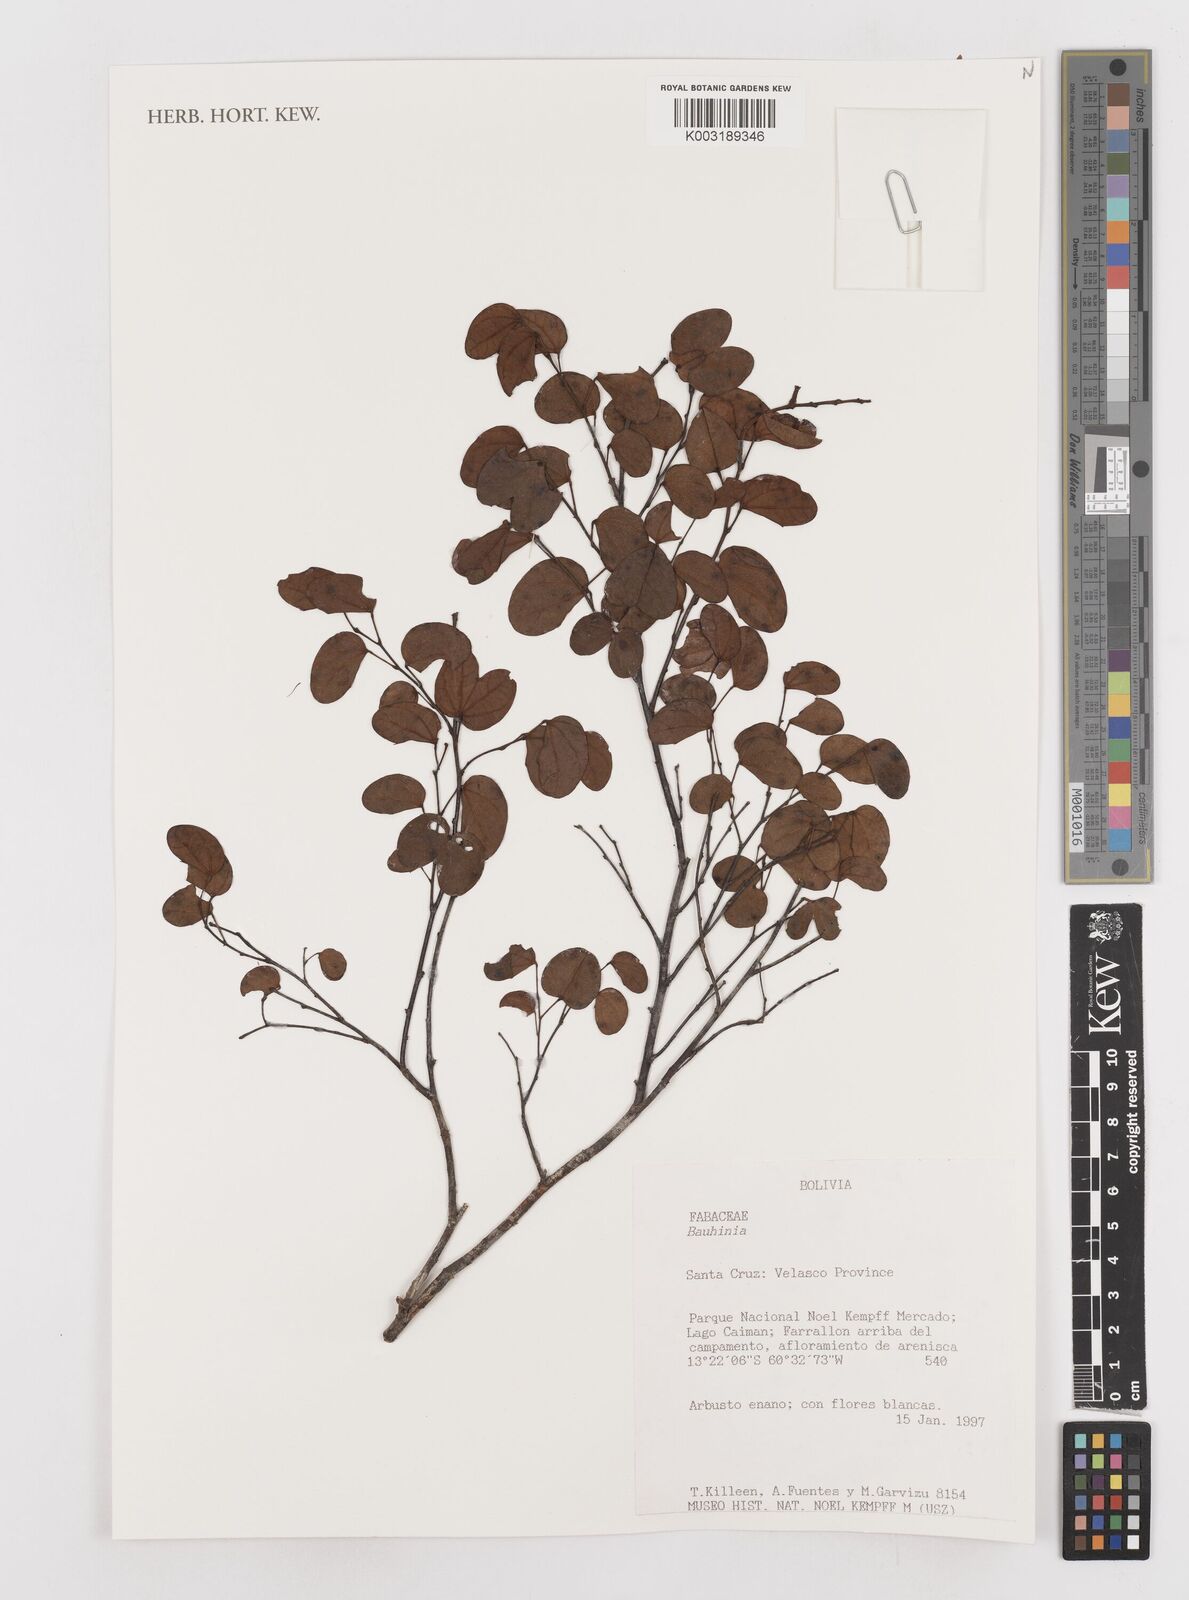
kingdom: Plantae
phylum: Tracheophyta
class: Magnoliopsida
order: Fabales
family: Fabaceae
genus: Bauhinia
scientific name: Bauhinia
